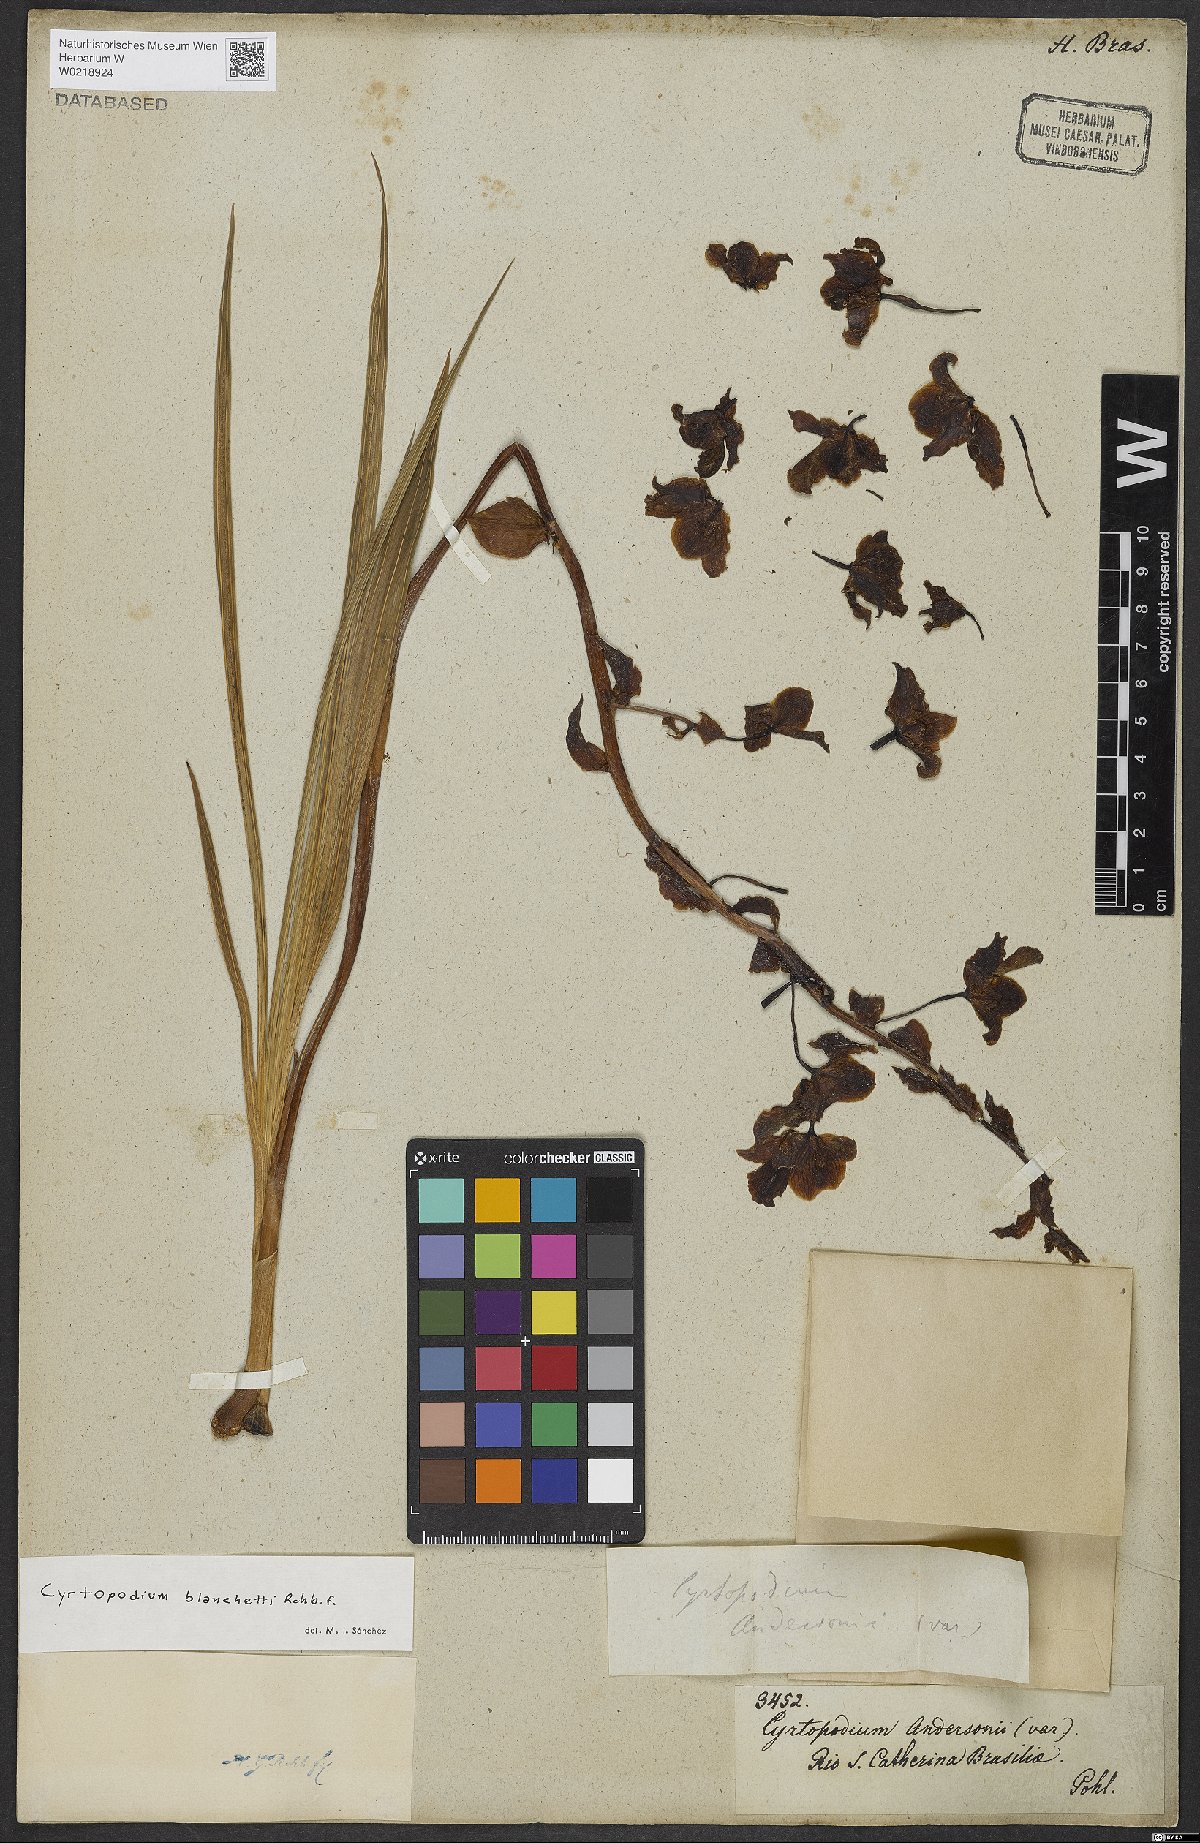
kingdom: Plantae
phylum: Tracheophyta
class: Liliopsida
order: Asparagales
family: Orchidaceae
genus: Cyrtopodium
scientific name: Cyrtopodium blanchetii
